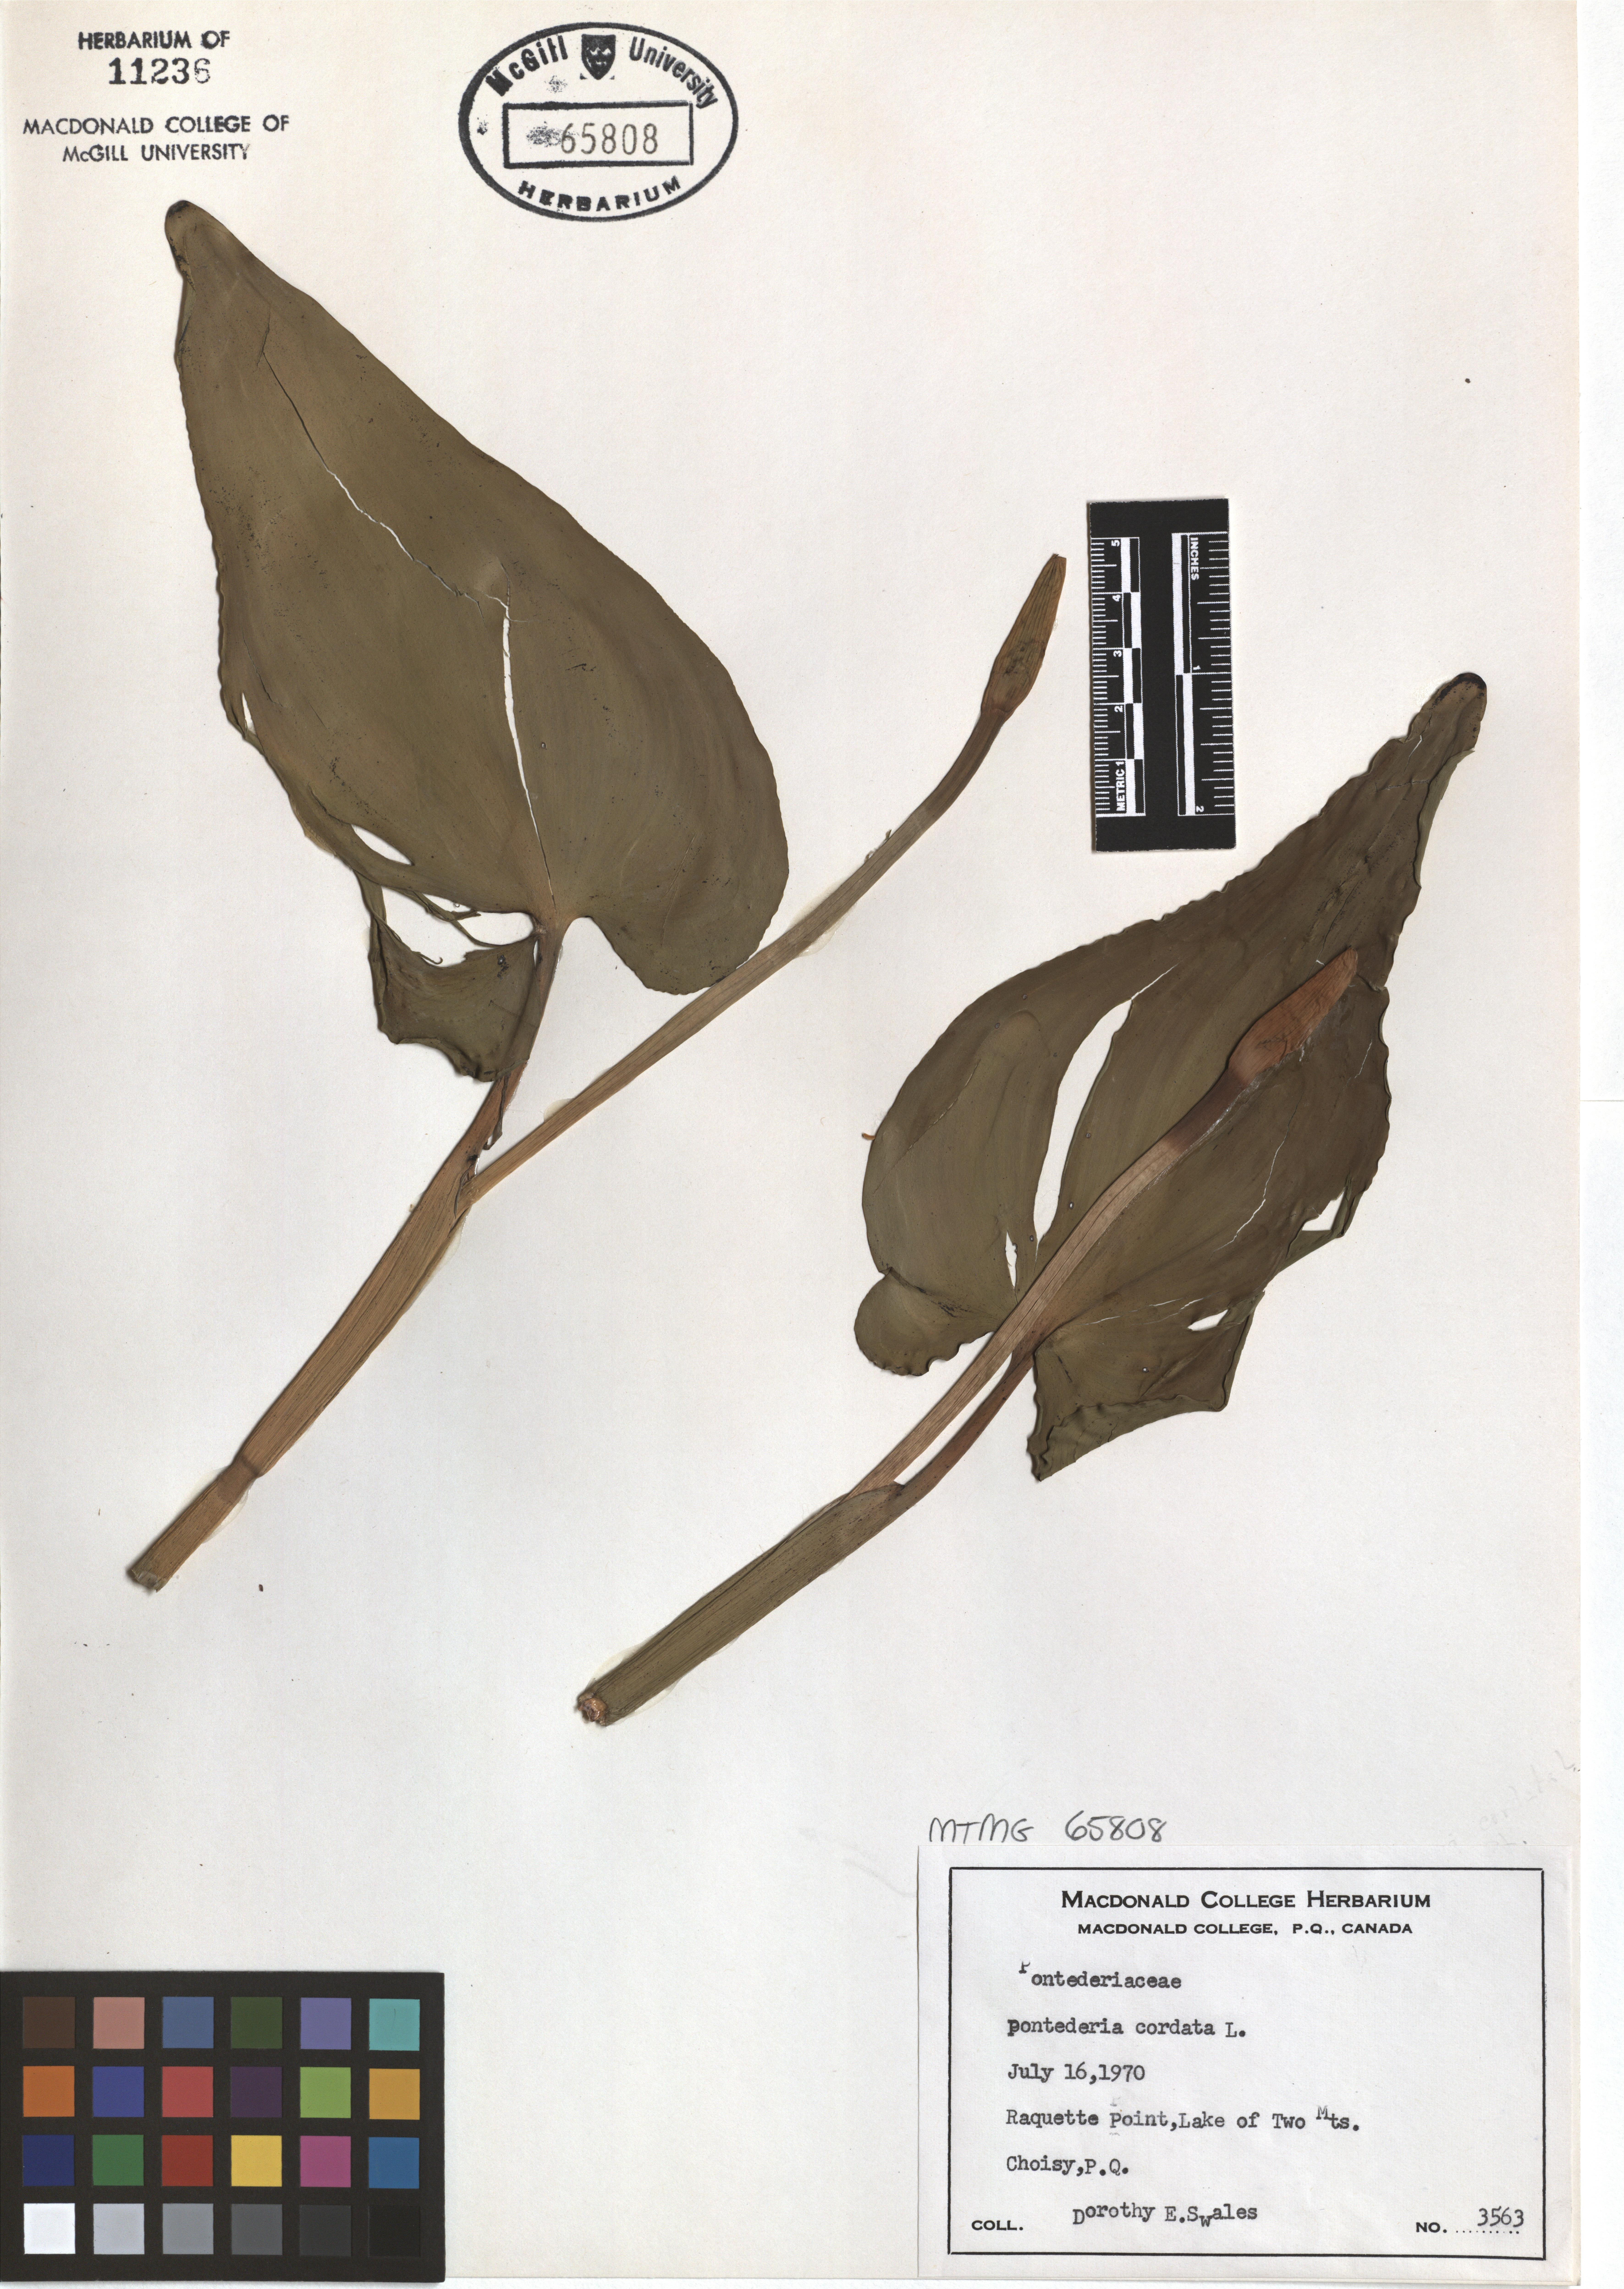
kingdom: Plantae
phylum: Tracheophyta
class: Liliopsida
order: Commelinales
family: Pontederiaceae
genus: Pontederia
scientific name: Pontederia cordata
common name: Pickerelweed
